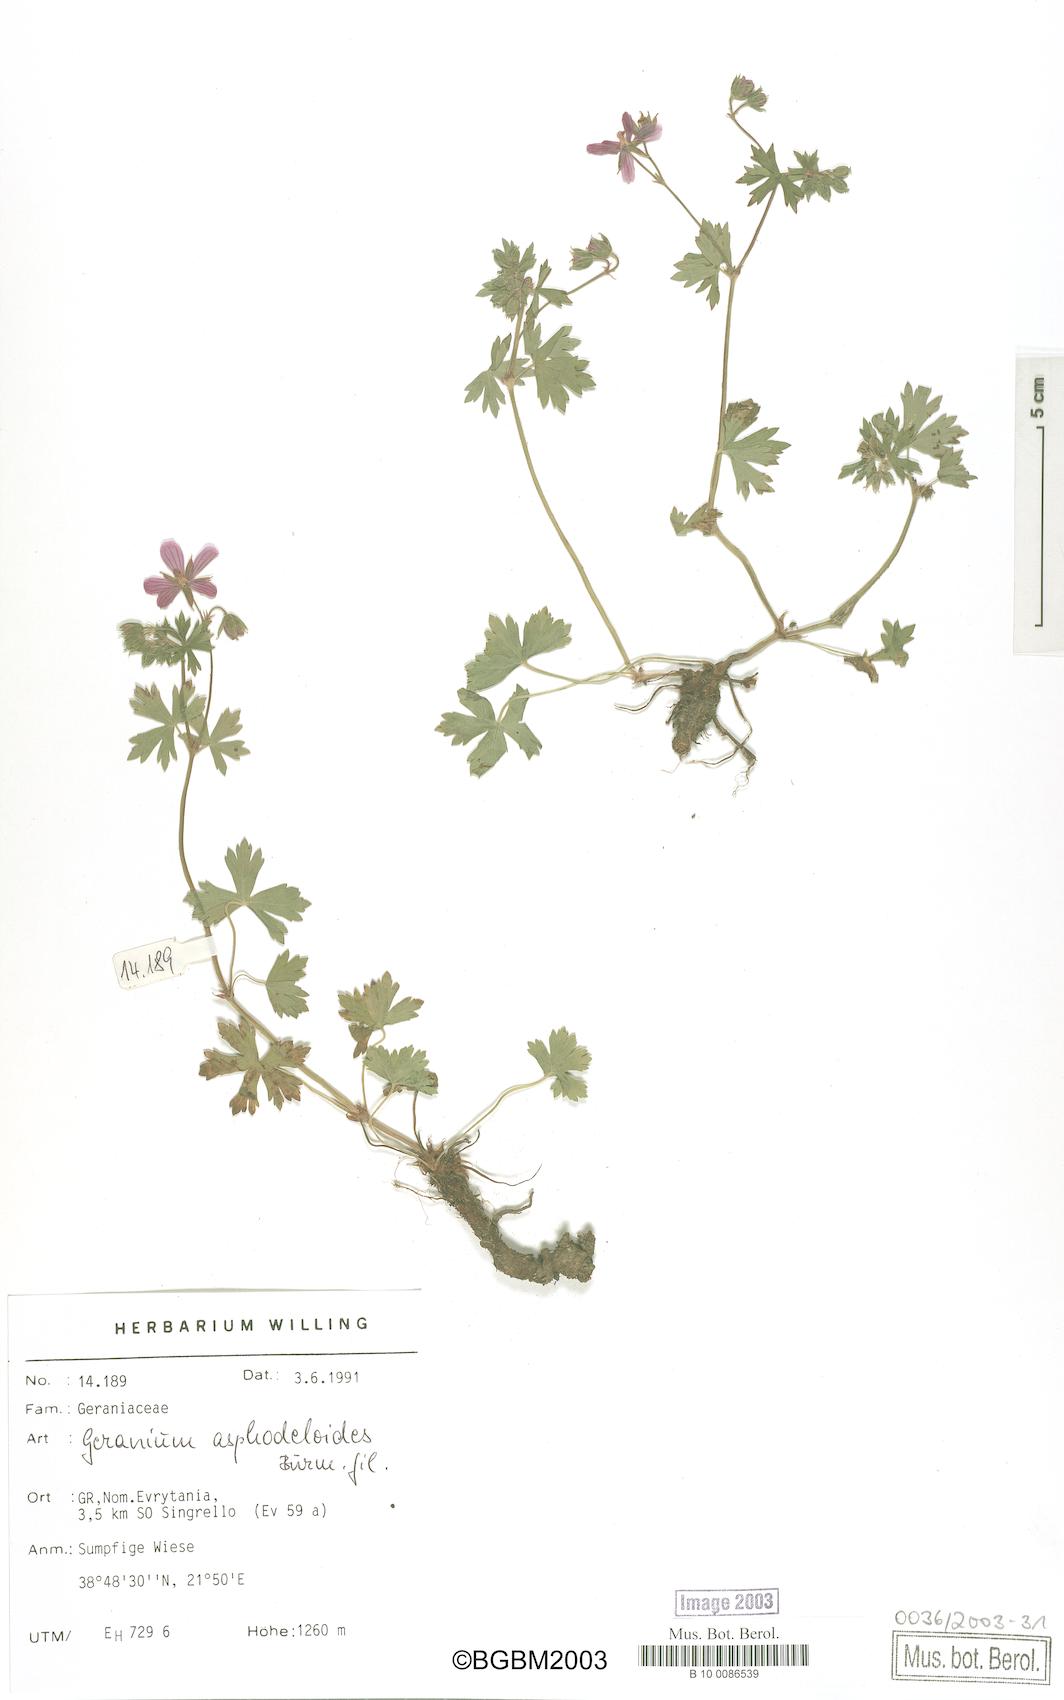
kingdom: Plantae
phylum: Tracheophyta
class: Magnoliopsida
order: Geraniales
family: Geraniaceae
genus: Geranium
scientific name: Geranium asphodeloides
